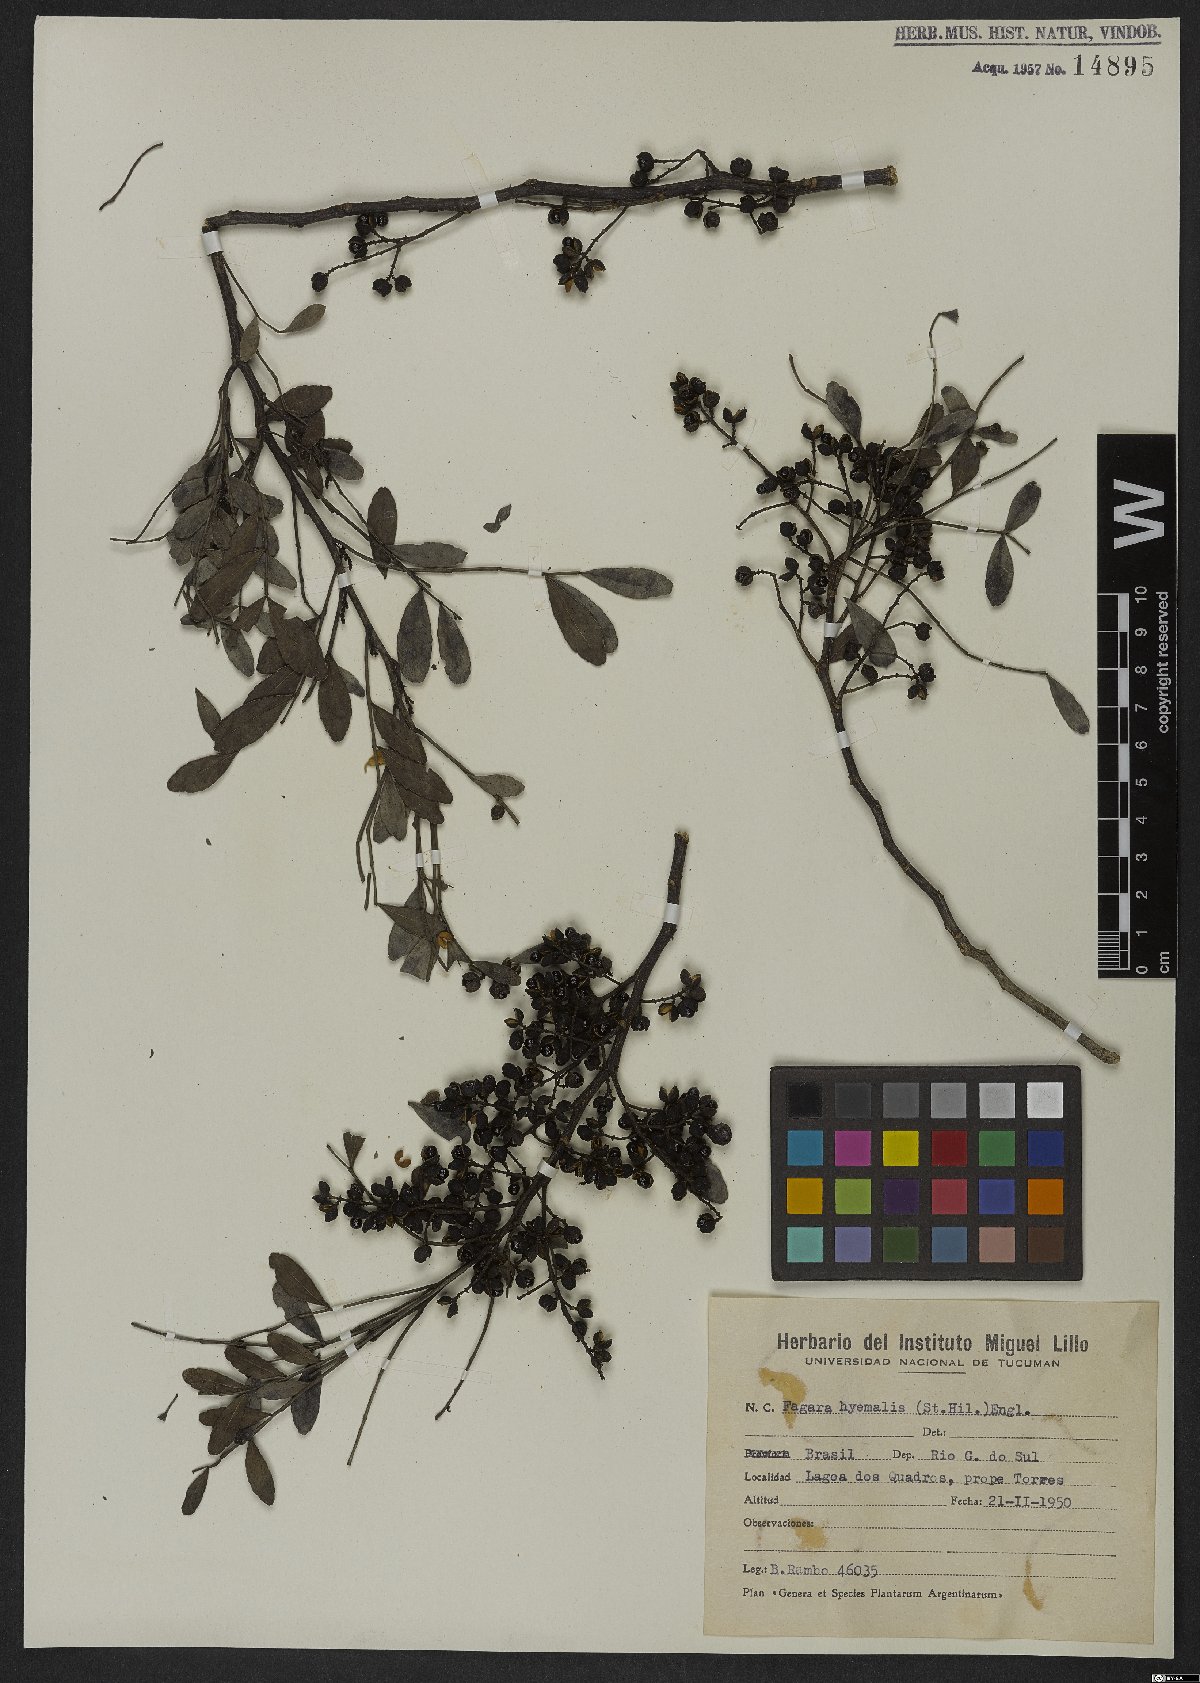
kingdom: Plantae
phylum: Tracheophyta
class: Magnoliopsida
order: Sapindales
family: Rutaceae
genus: Zanthoxylum
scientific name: Zanthoxylum fagara
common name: Lime prickly-ash
